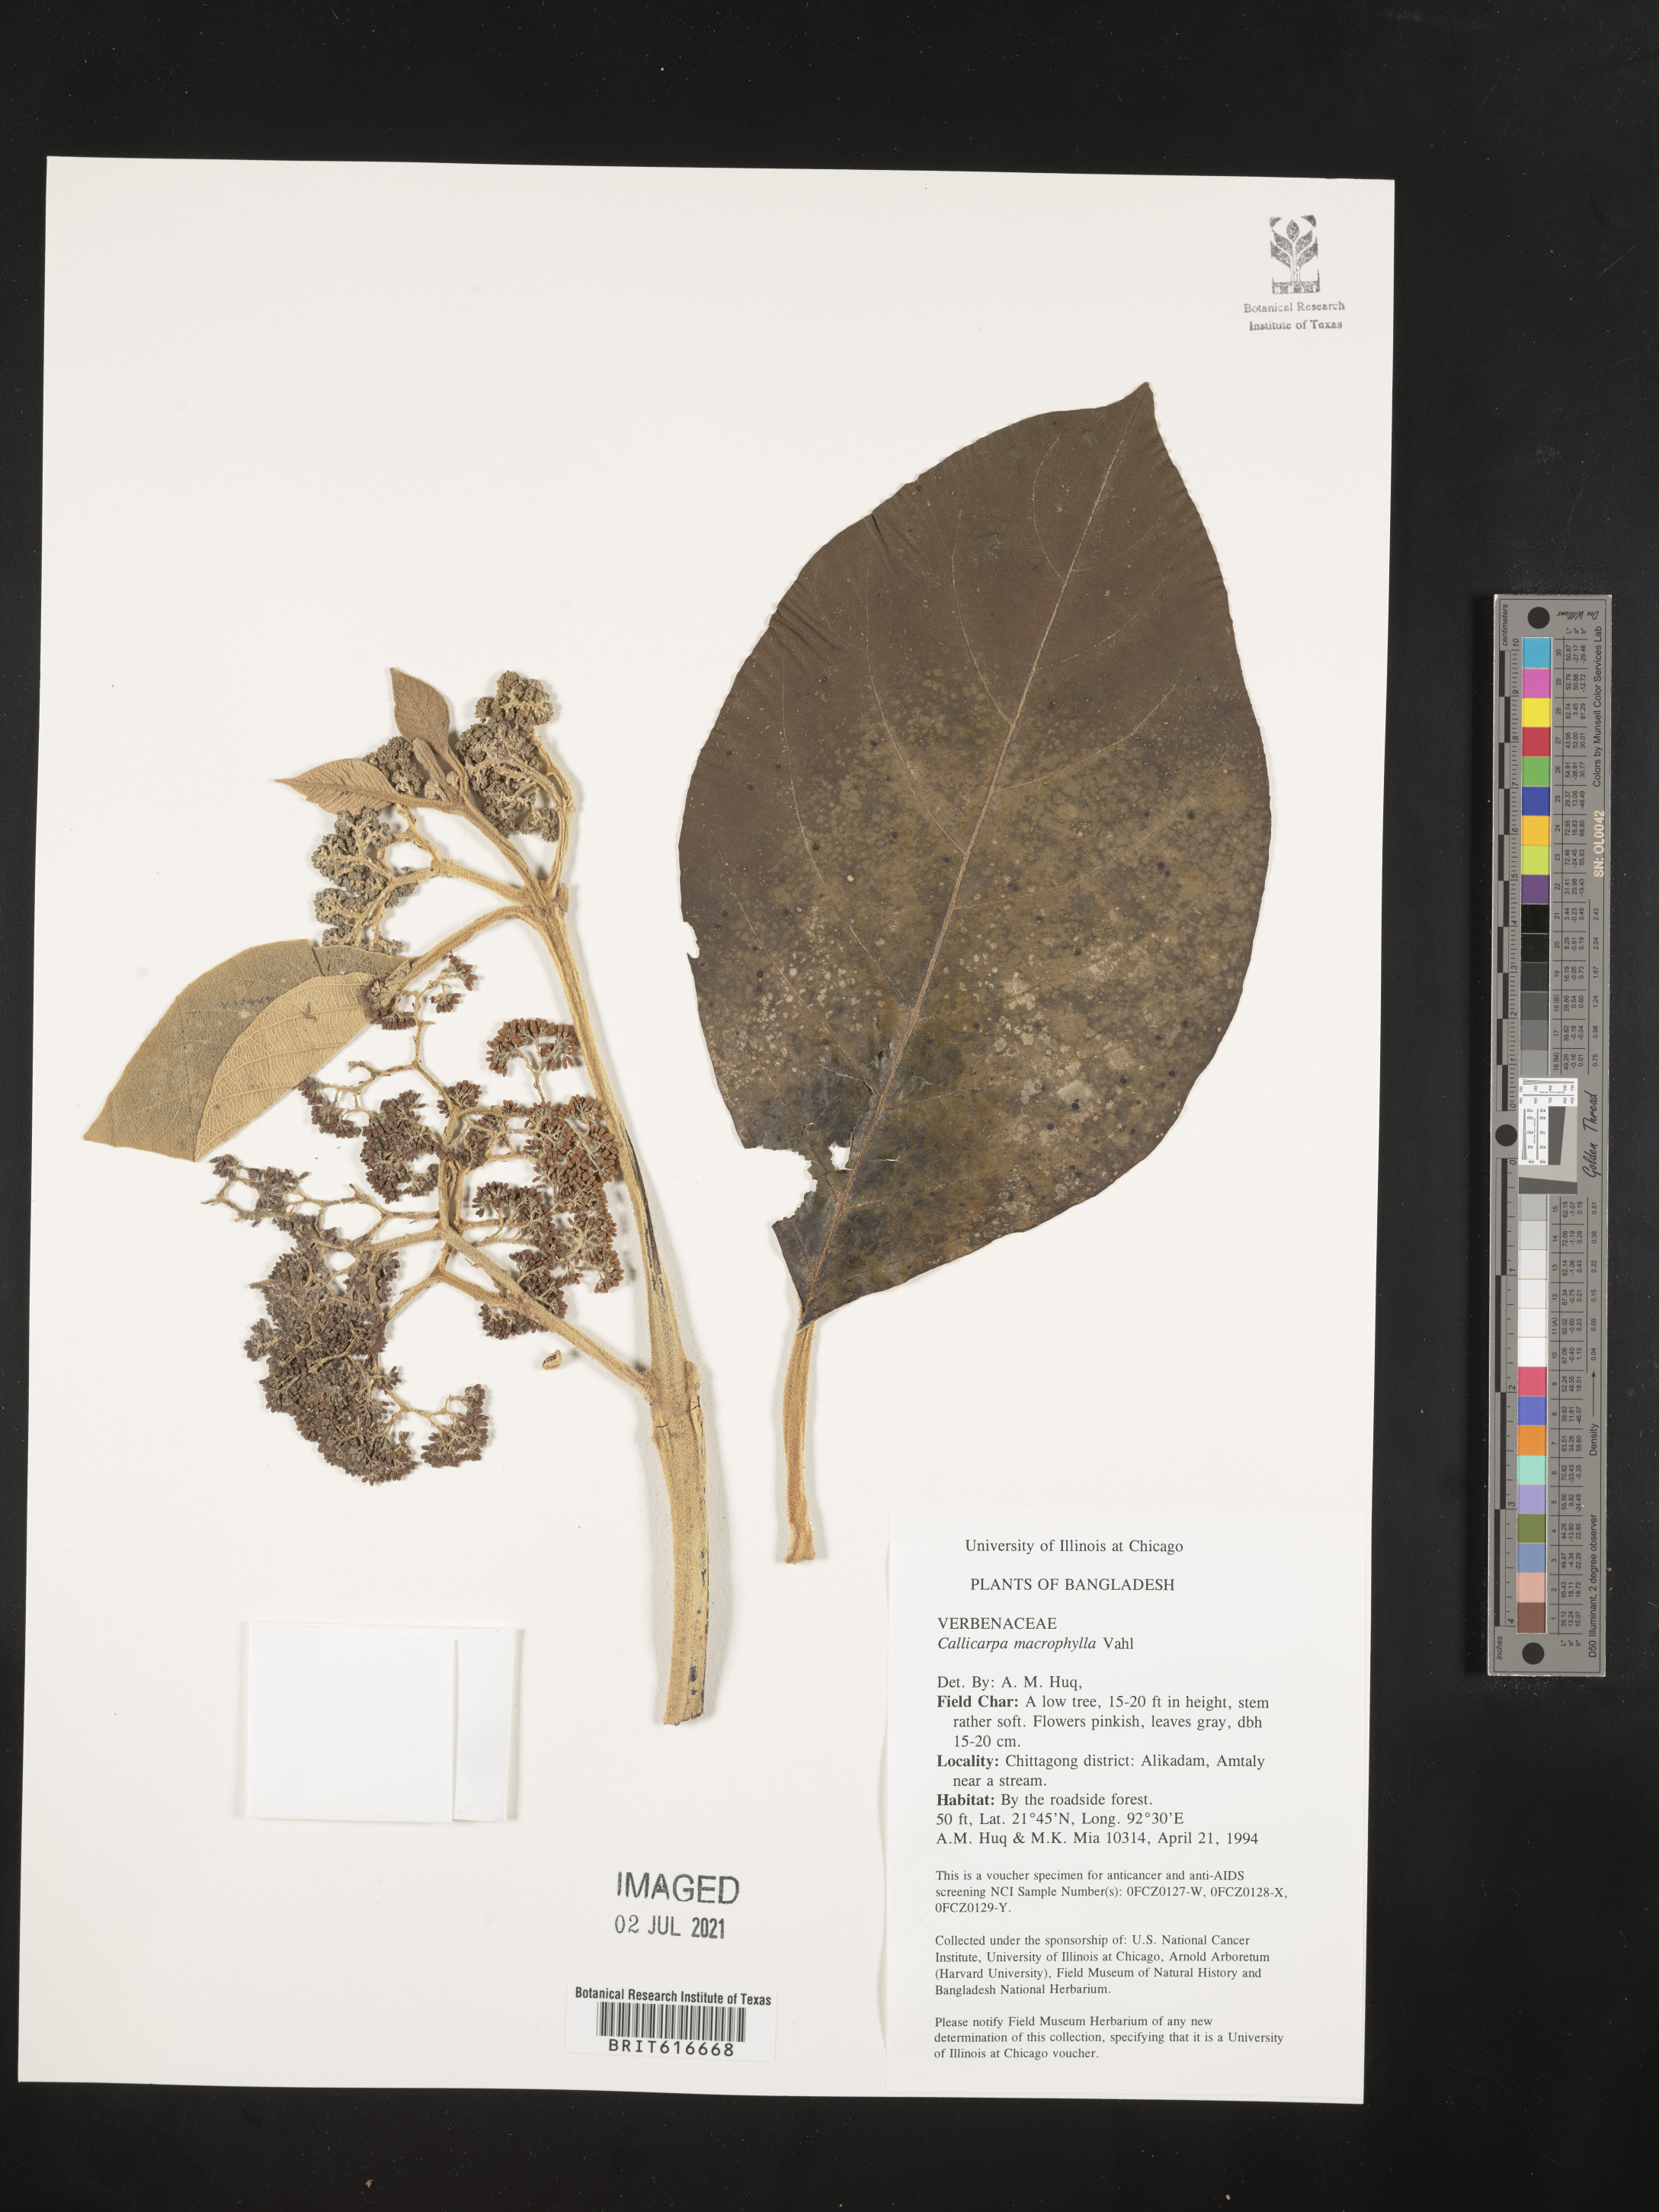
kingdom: Plantae
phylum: Tracheophyta
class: Magnoliopsida
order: Lamiales
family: Lamiaceae
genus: Callicarpa
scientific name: Callicarpa macrophylla
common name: Urn-fruit beauty-berry
